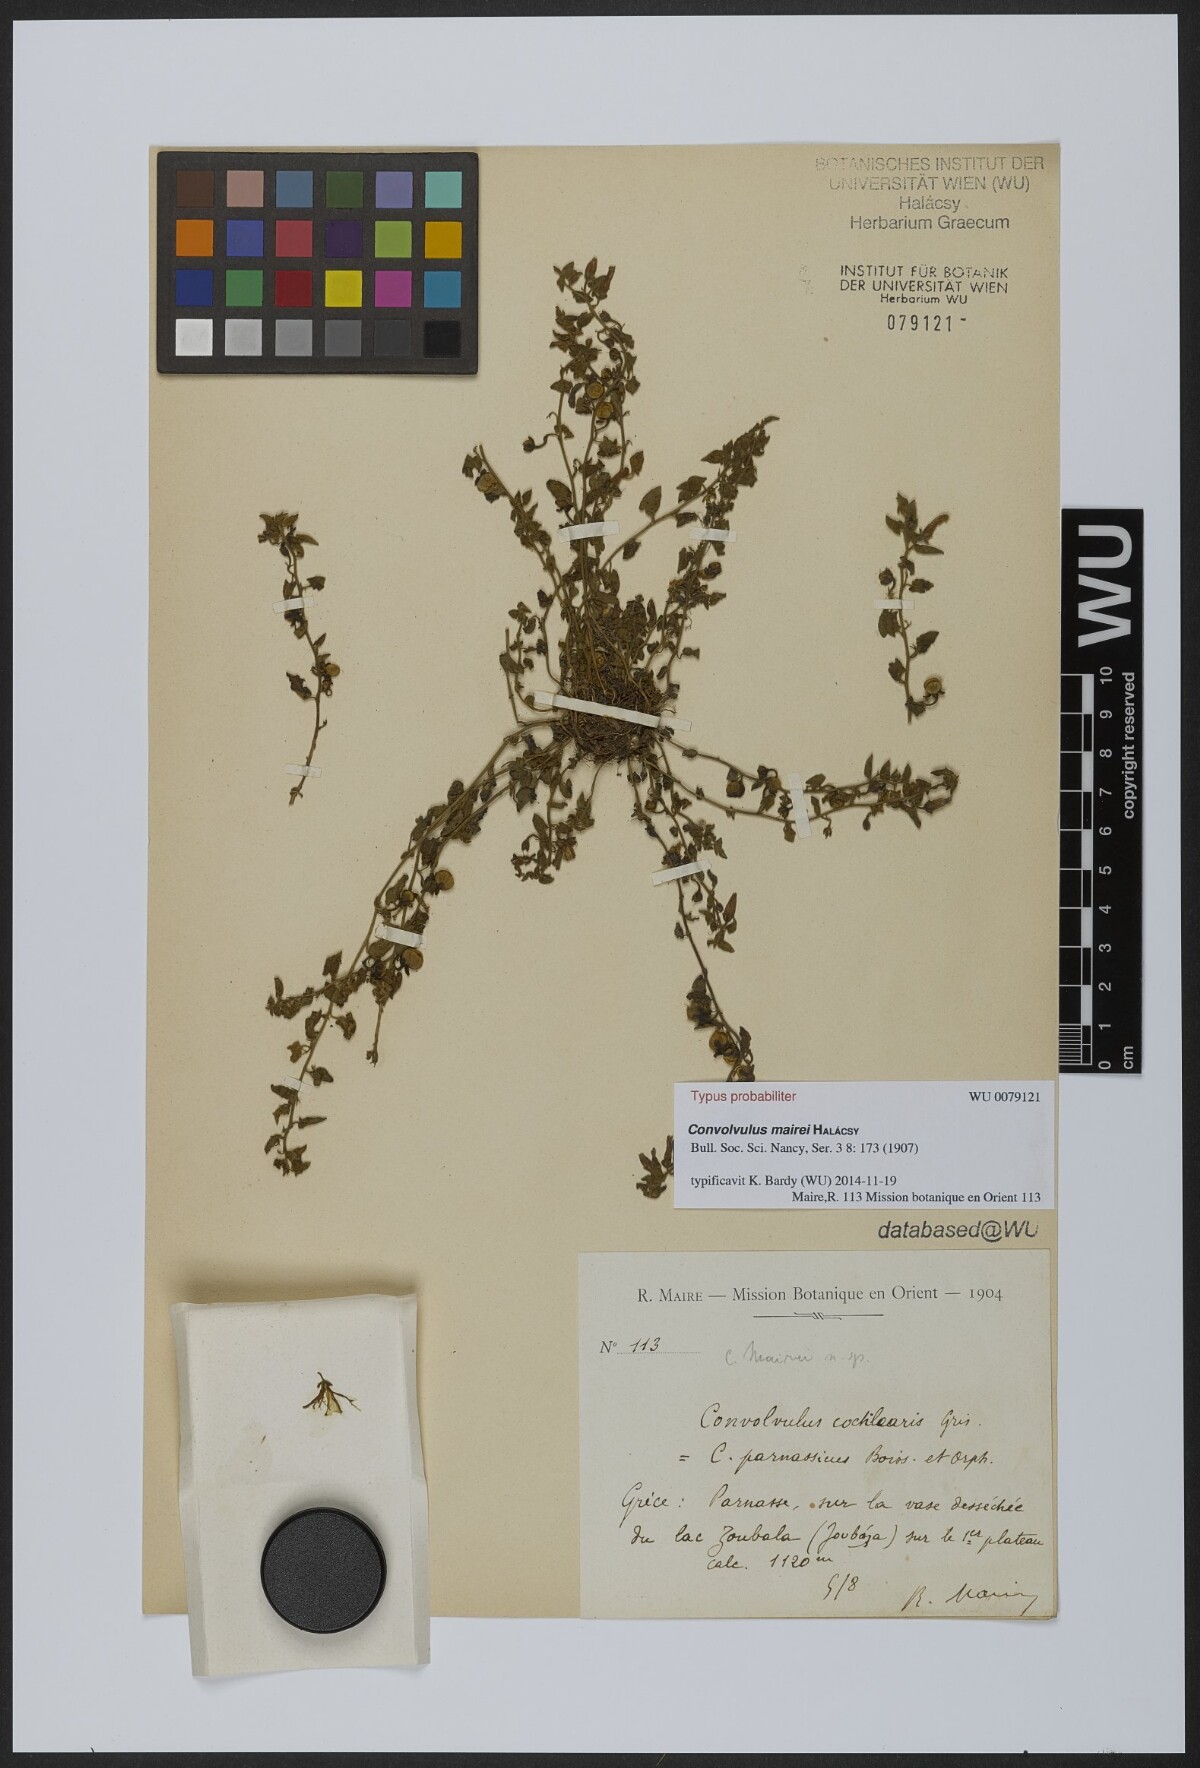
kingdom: Plantae
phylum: Tracheophyta
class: Magnoliopsida
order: Solanales
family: Convolvulaceae
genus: Convolvulus
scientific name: Convolvulus mairei
